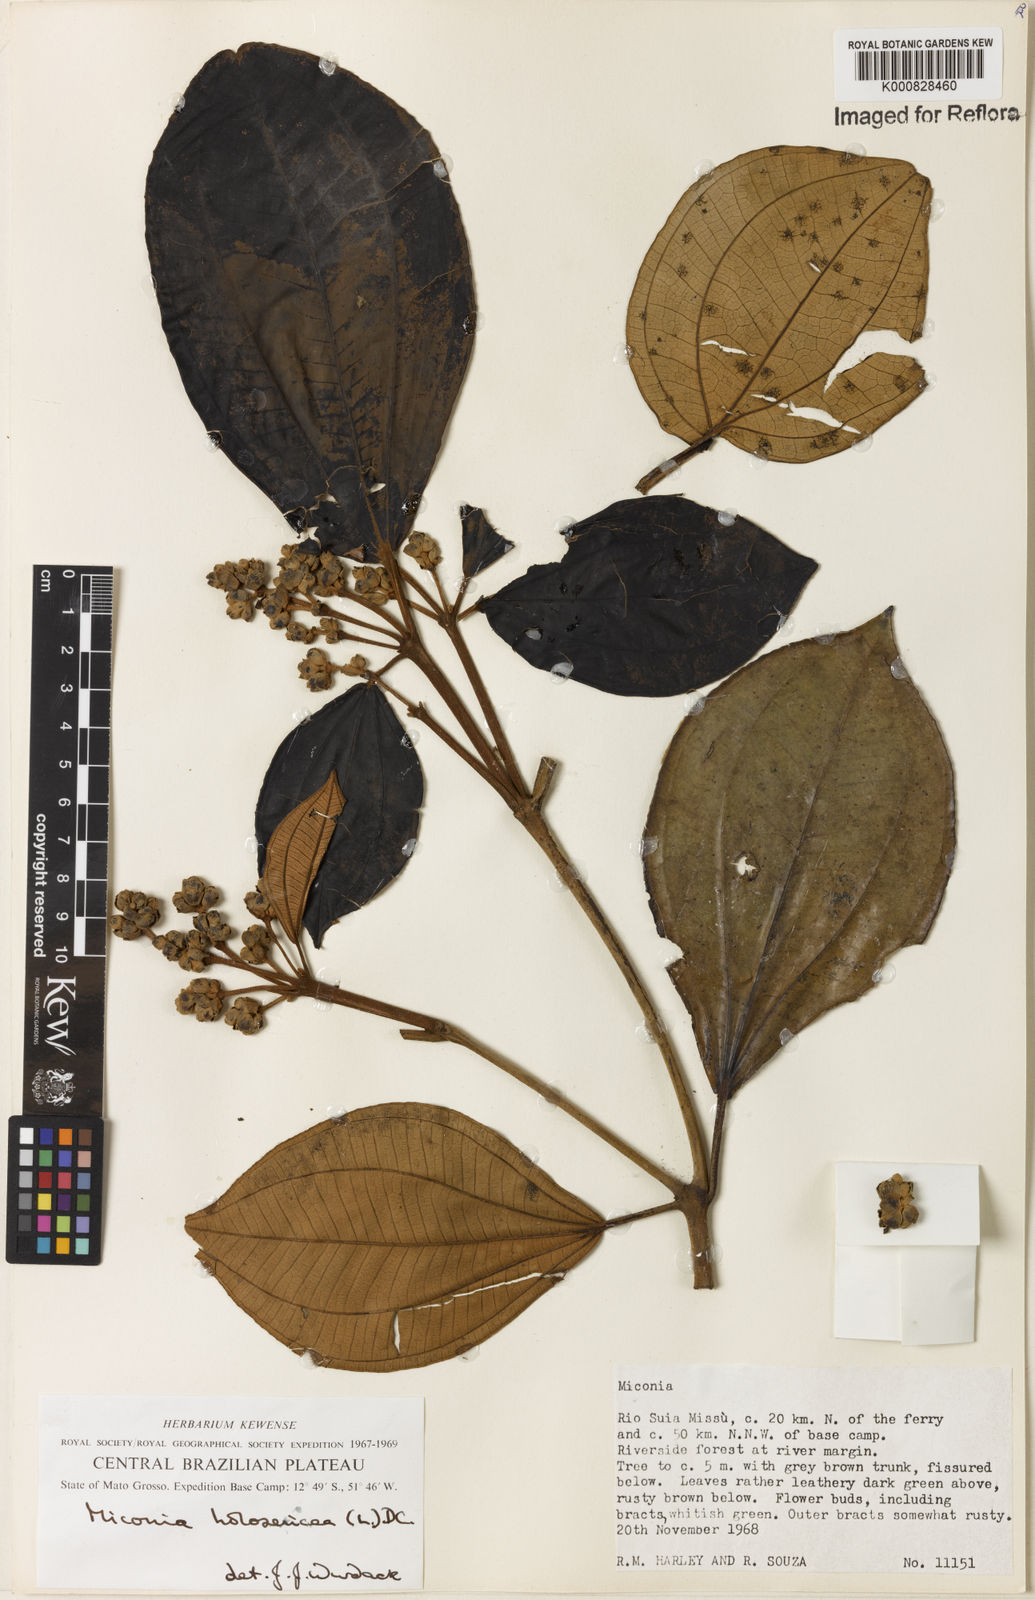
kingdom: Plantae
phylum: Tracheophyta
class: Magnoliopsida
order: Myrtales
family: Melastomataceae
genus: Miconia
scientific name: Miconia holosericea
